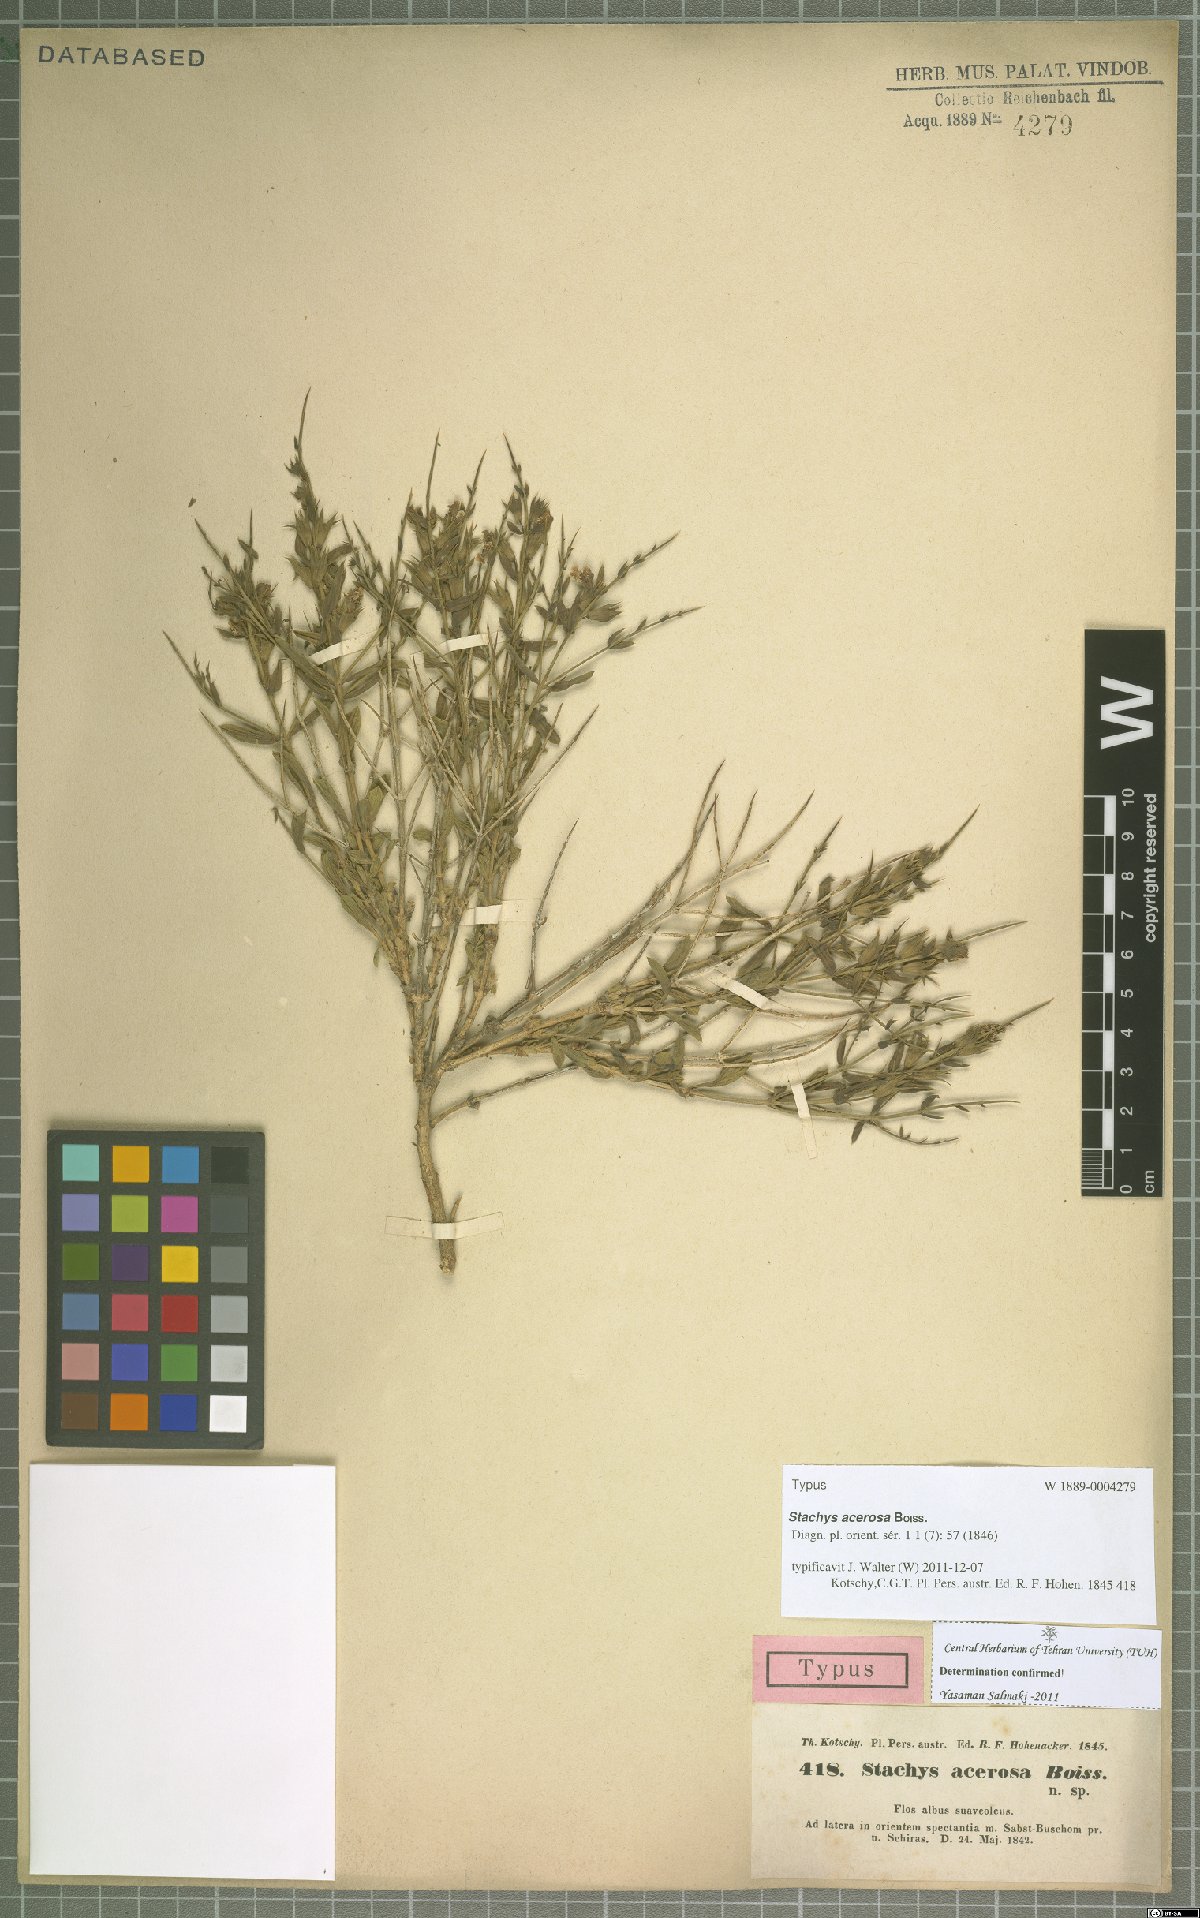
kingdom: Plantae
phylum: Tracheophyta
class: Magnoliopsida
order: Lamiales
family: Lamiaceae
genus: Stachys
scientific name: Stachys acerosa
